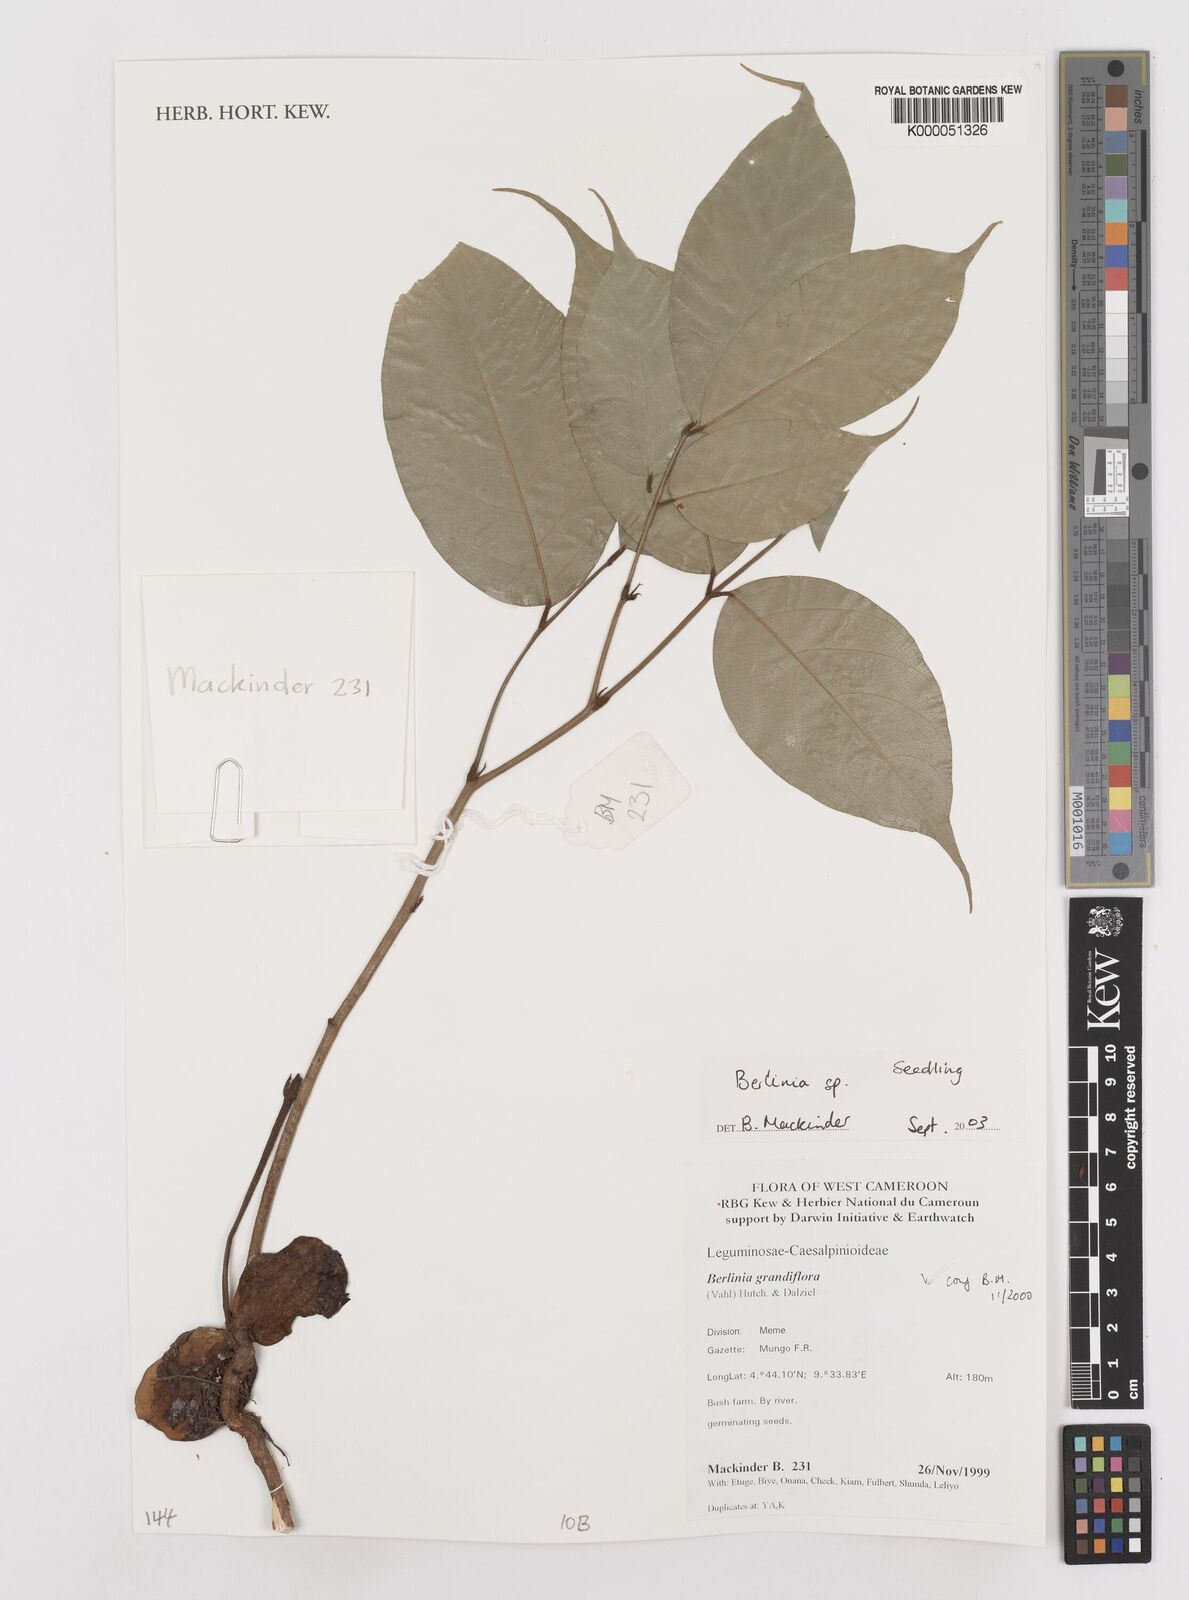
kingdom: Plantae
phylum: Tracheophyta
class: Magnoliopsida
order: Fabales
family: Fabaceae
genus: Berlinia
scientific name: Berlinia
